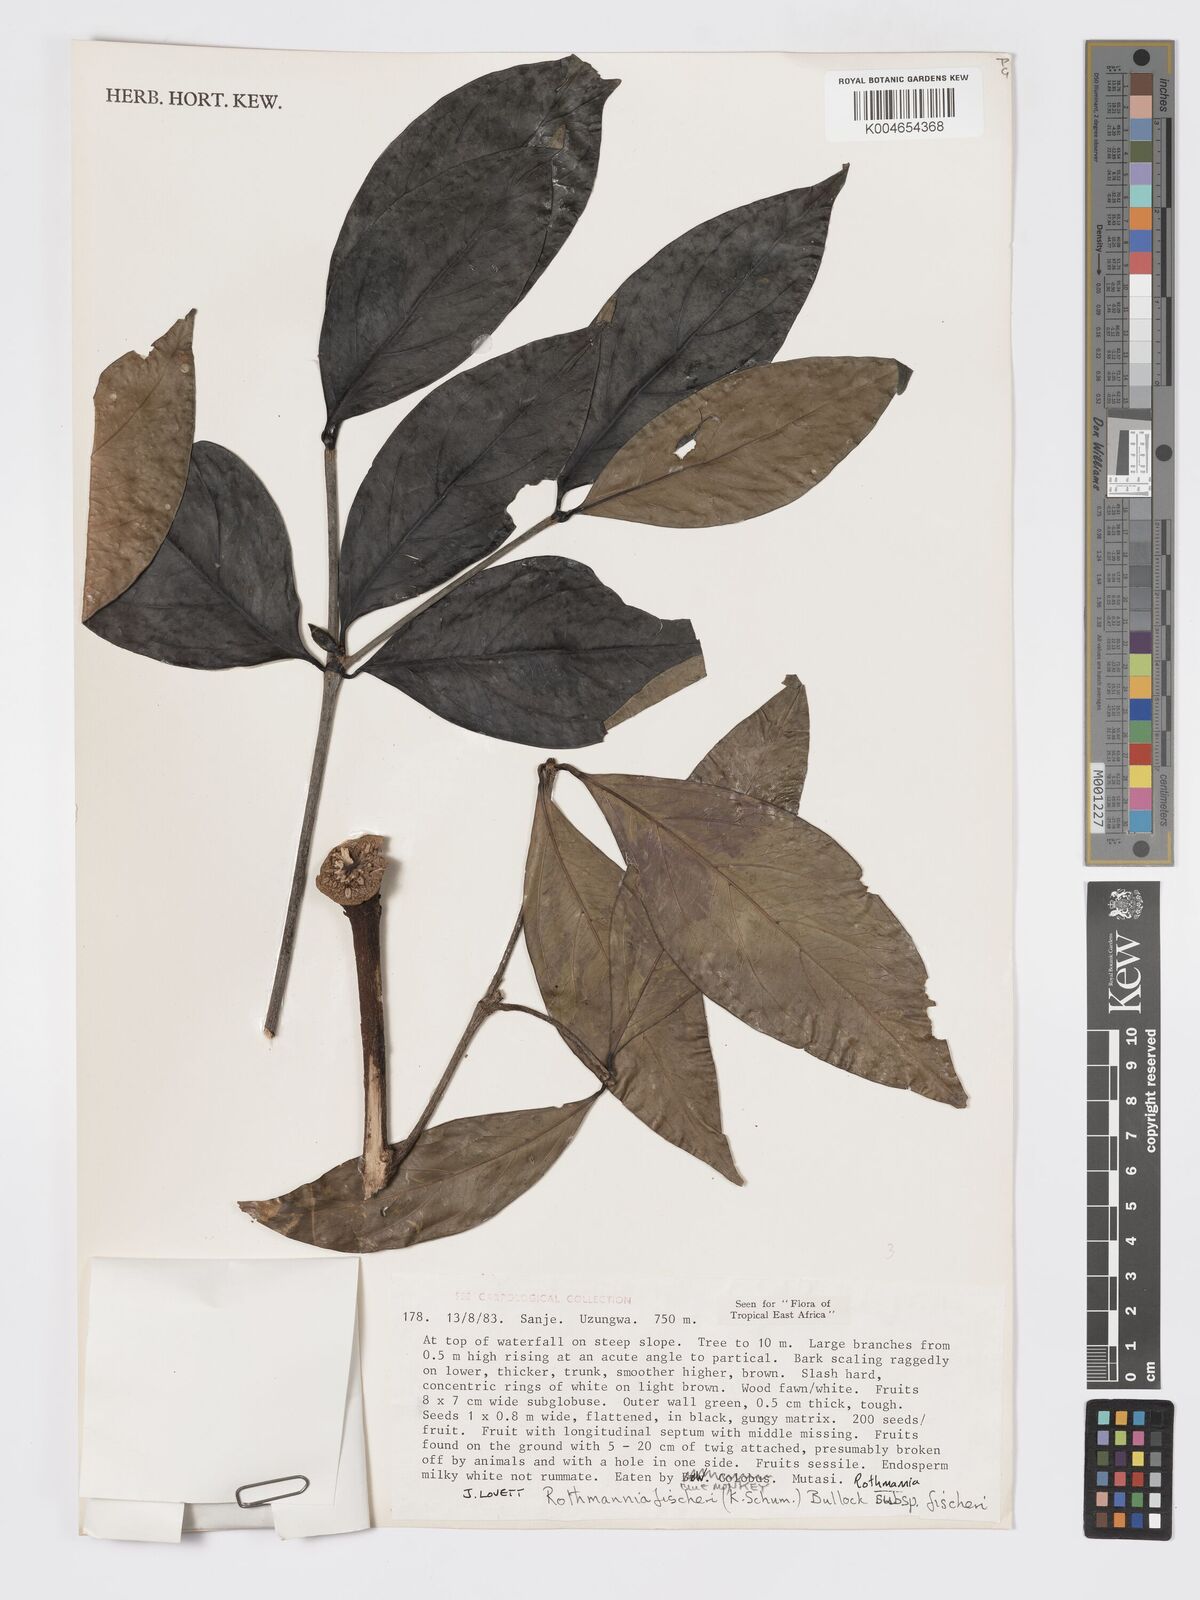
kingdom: Plantae
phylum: Tracheophyta
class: Magnoliopsida
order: Gentianales
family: Rubiaceae
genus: Rothmannia
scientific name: Rothmannia fischeri
